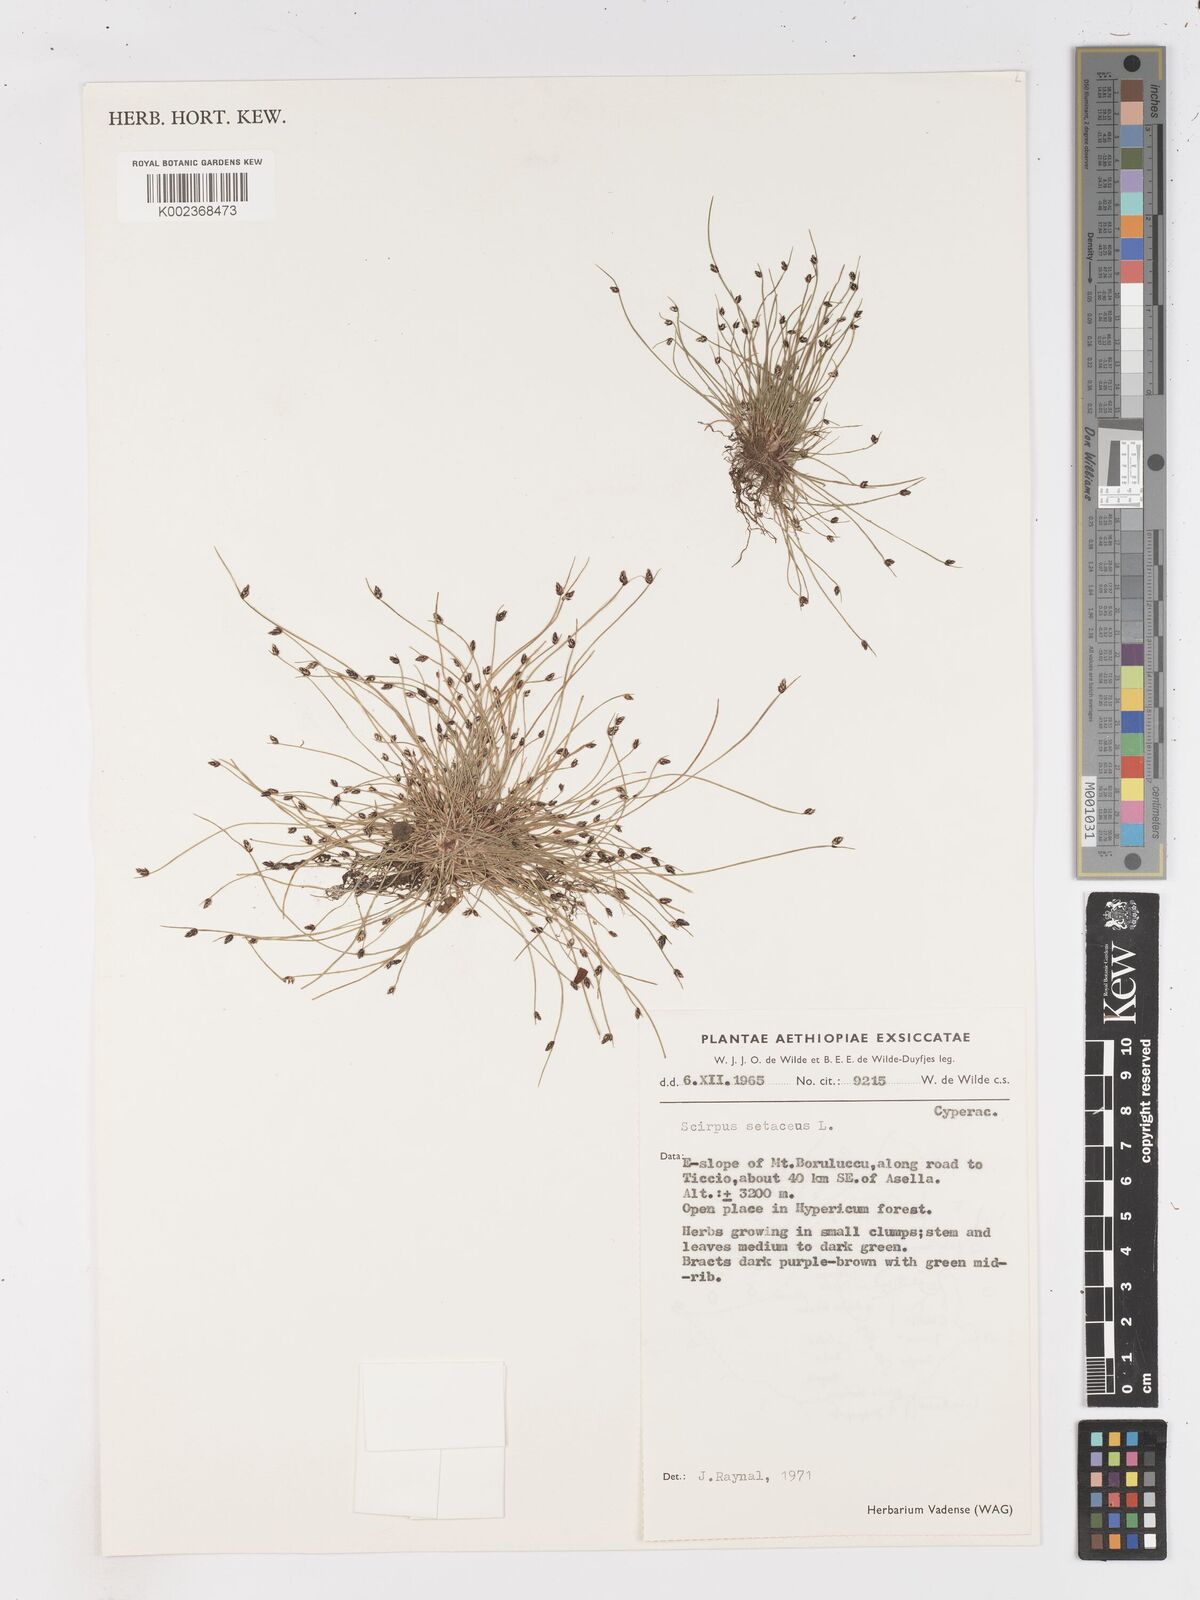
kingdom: Plantae
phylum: Tracheophyta
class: Liliopsida
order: Poales
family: Cyperaceae
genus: Isolepis
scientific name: Isolepis setacea
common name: Bristle club-rush
